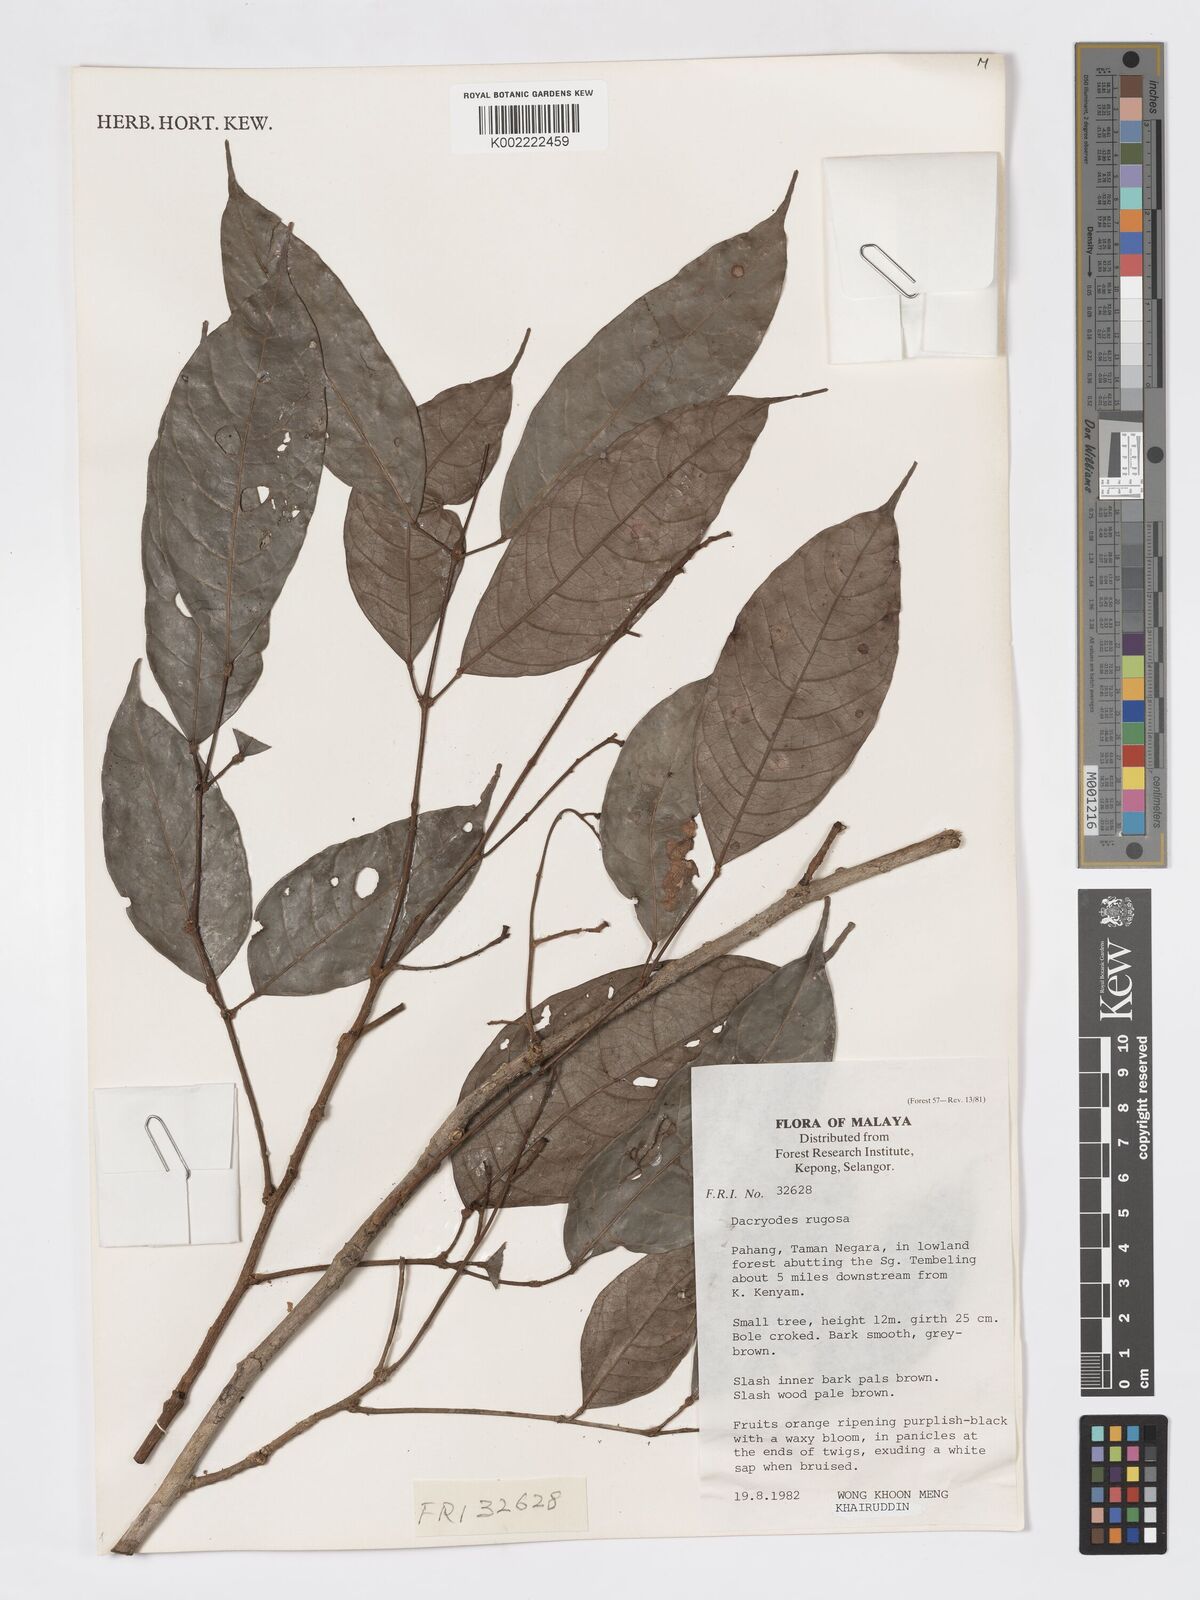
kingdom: Plantae
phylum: Tracheophyta
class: Magnoliopsida
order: Sapindales
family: Burseraceae
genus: Dacryodes
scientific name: Dacryodes rugosa
